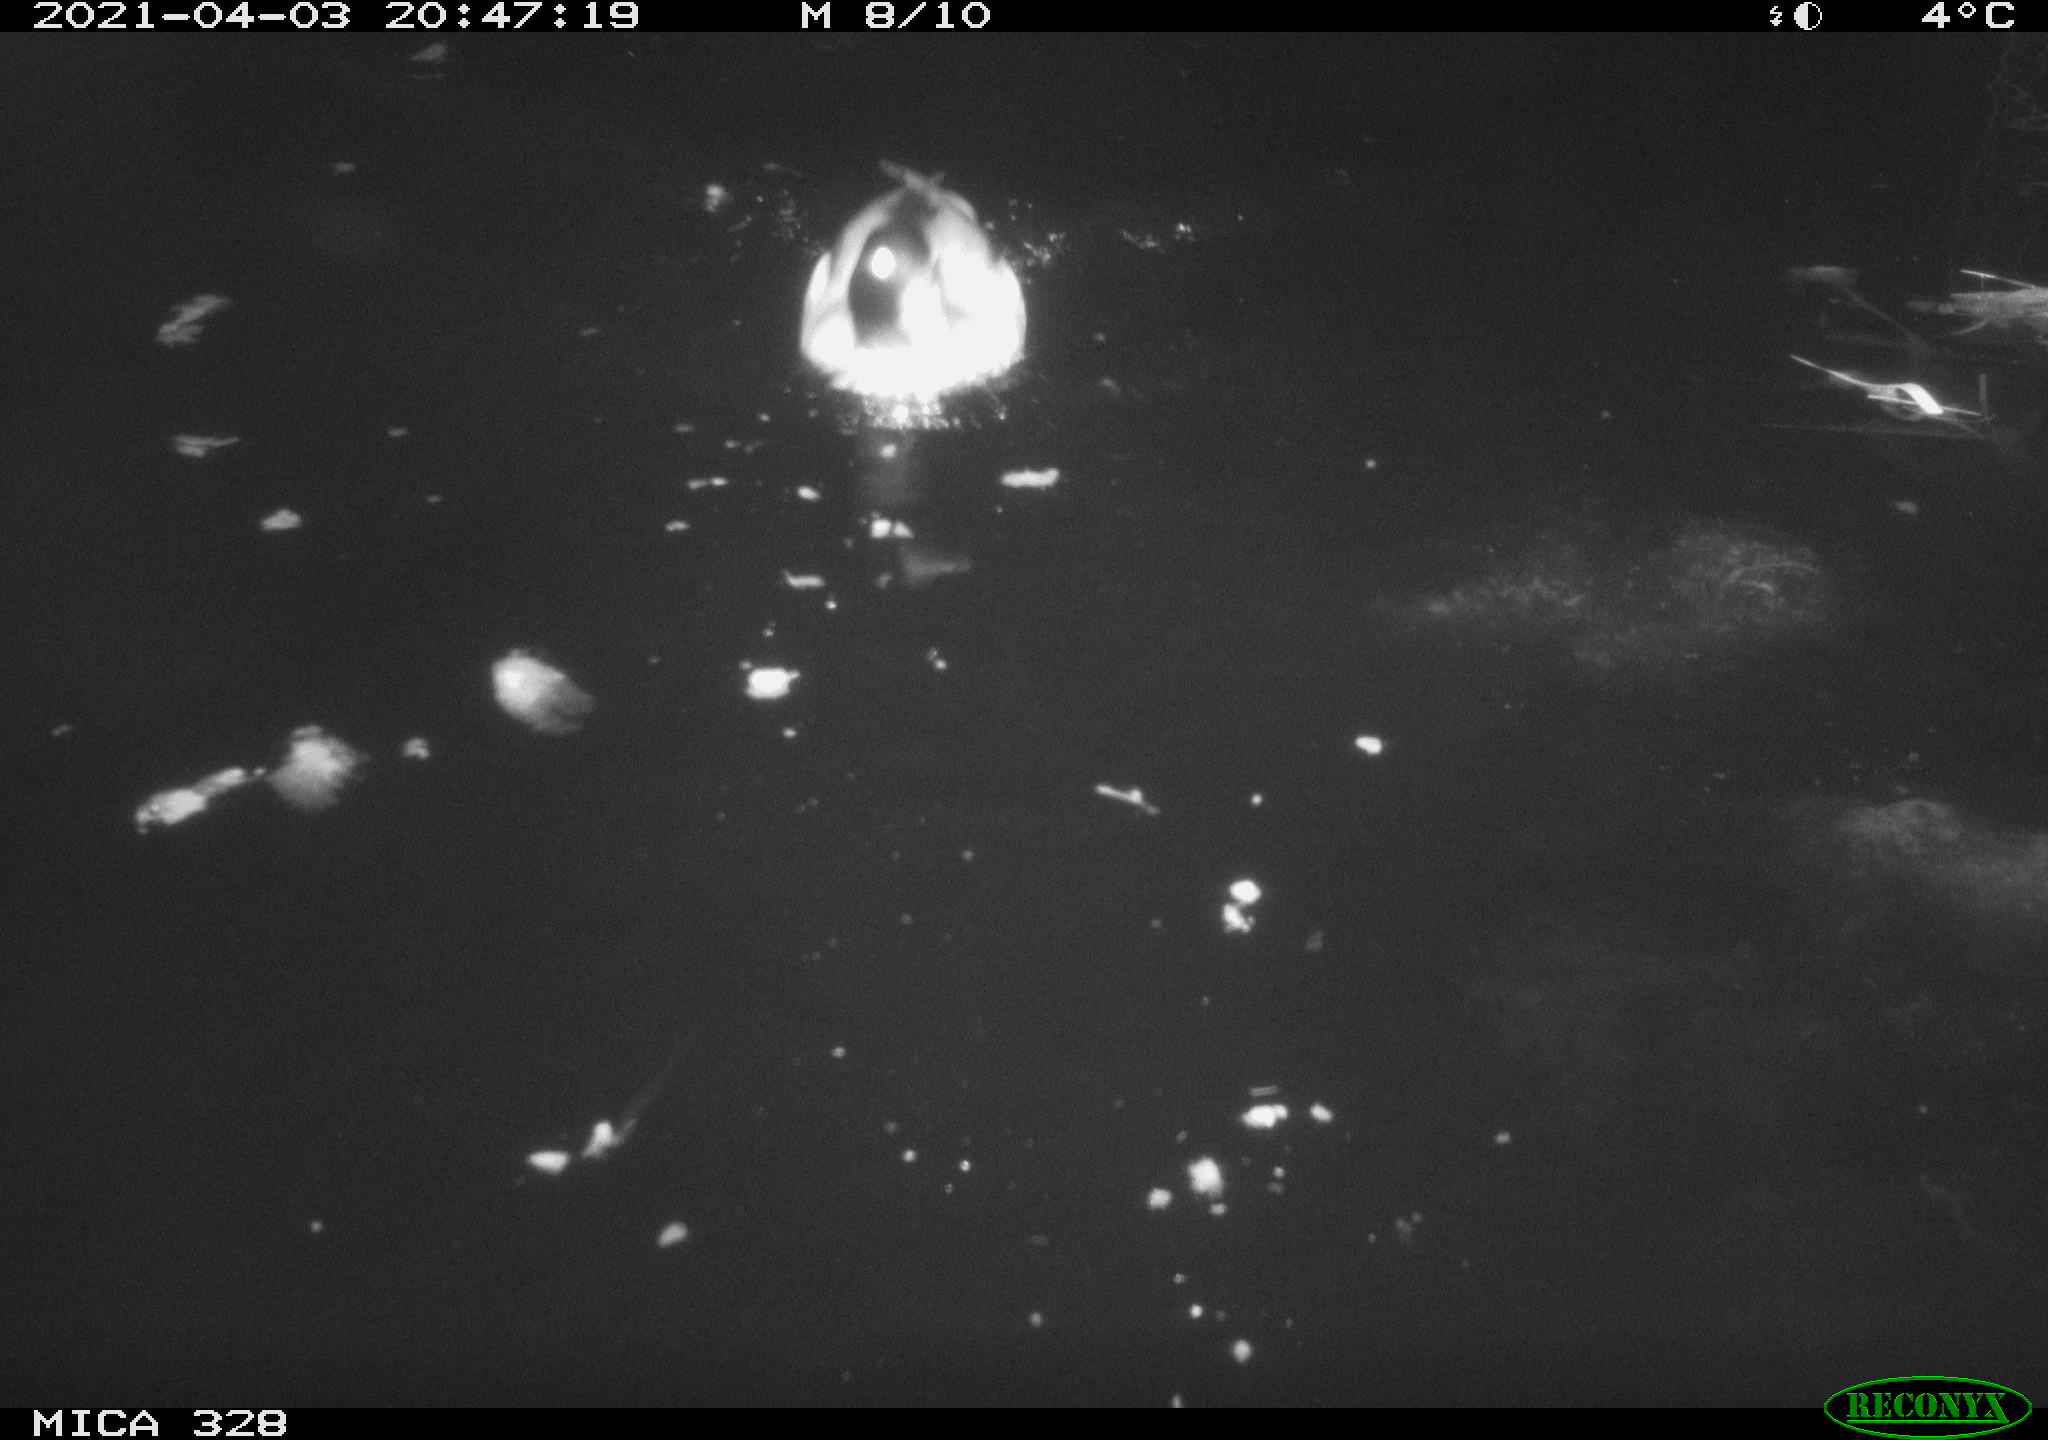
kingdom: Animalia
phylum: Chordata
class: Aves
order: Anseriformes
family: Anatidae
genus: Anas
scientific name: Anas platyrhynchos
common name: Mallard
